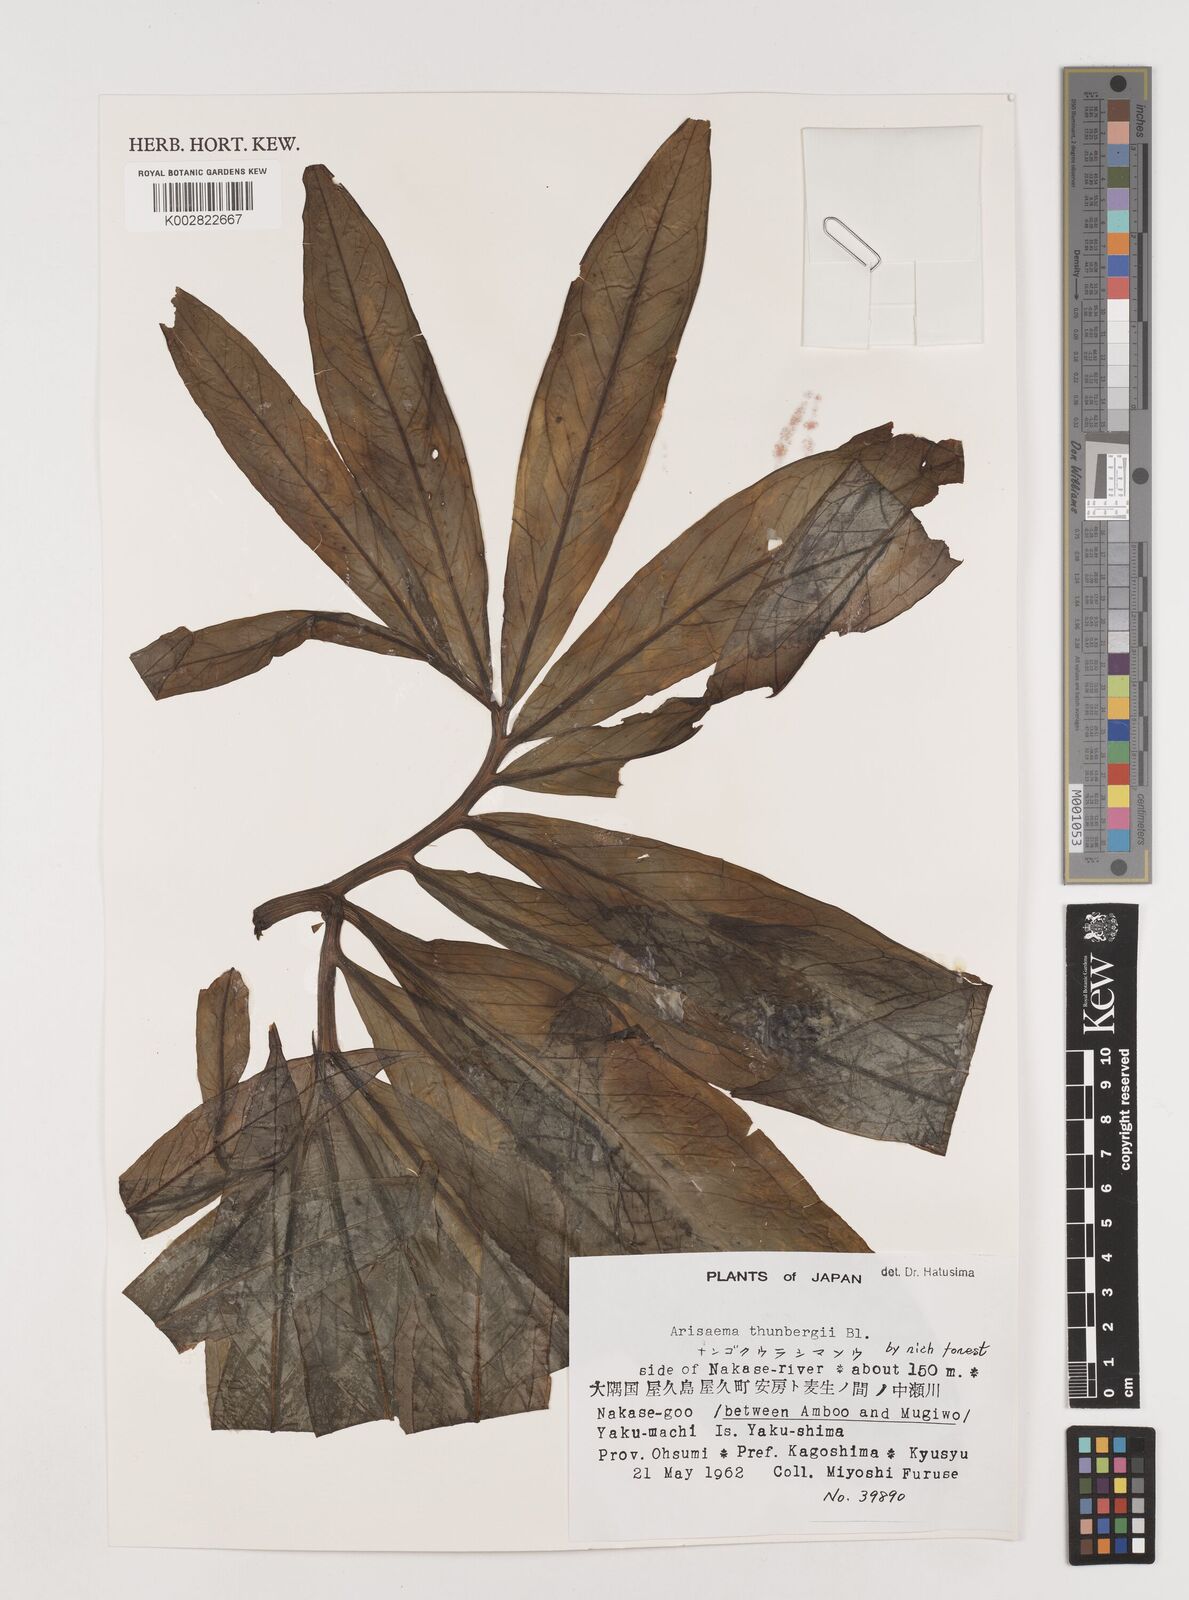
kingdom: Plantae
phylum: Tracheophyta
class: Liliopsida
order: Alismatales
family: Araceae
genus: Arisaema
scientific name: Arisaema thunbergii
